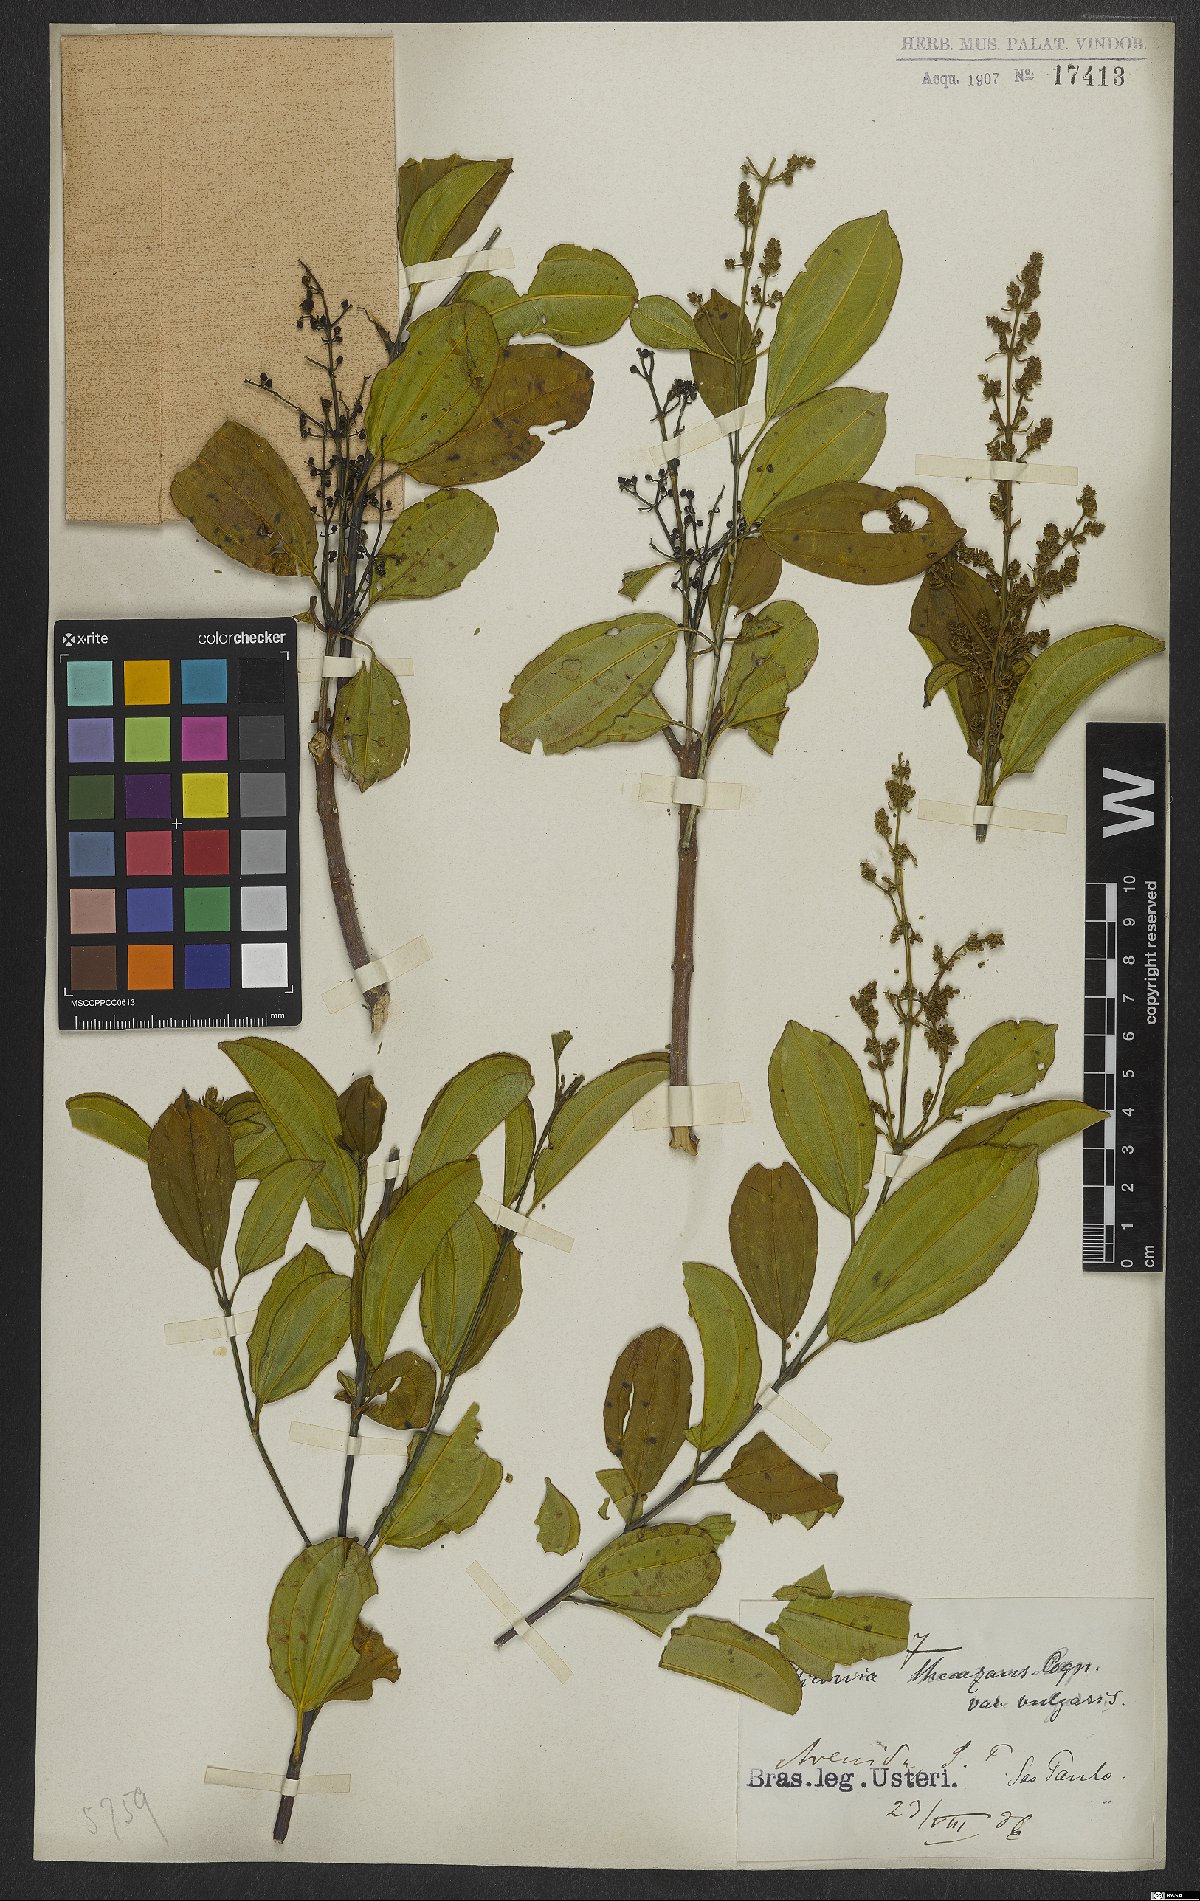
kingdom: Plantae
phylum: Tracheophyta
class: Magnoliopsida
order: Myrtales
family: Melastomataceae
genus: Miconia
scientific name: Miconia theizans
